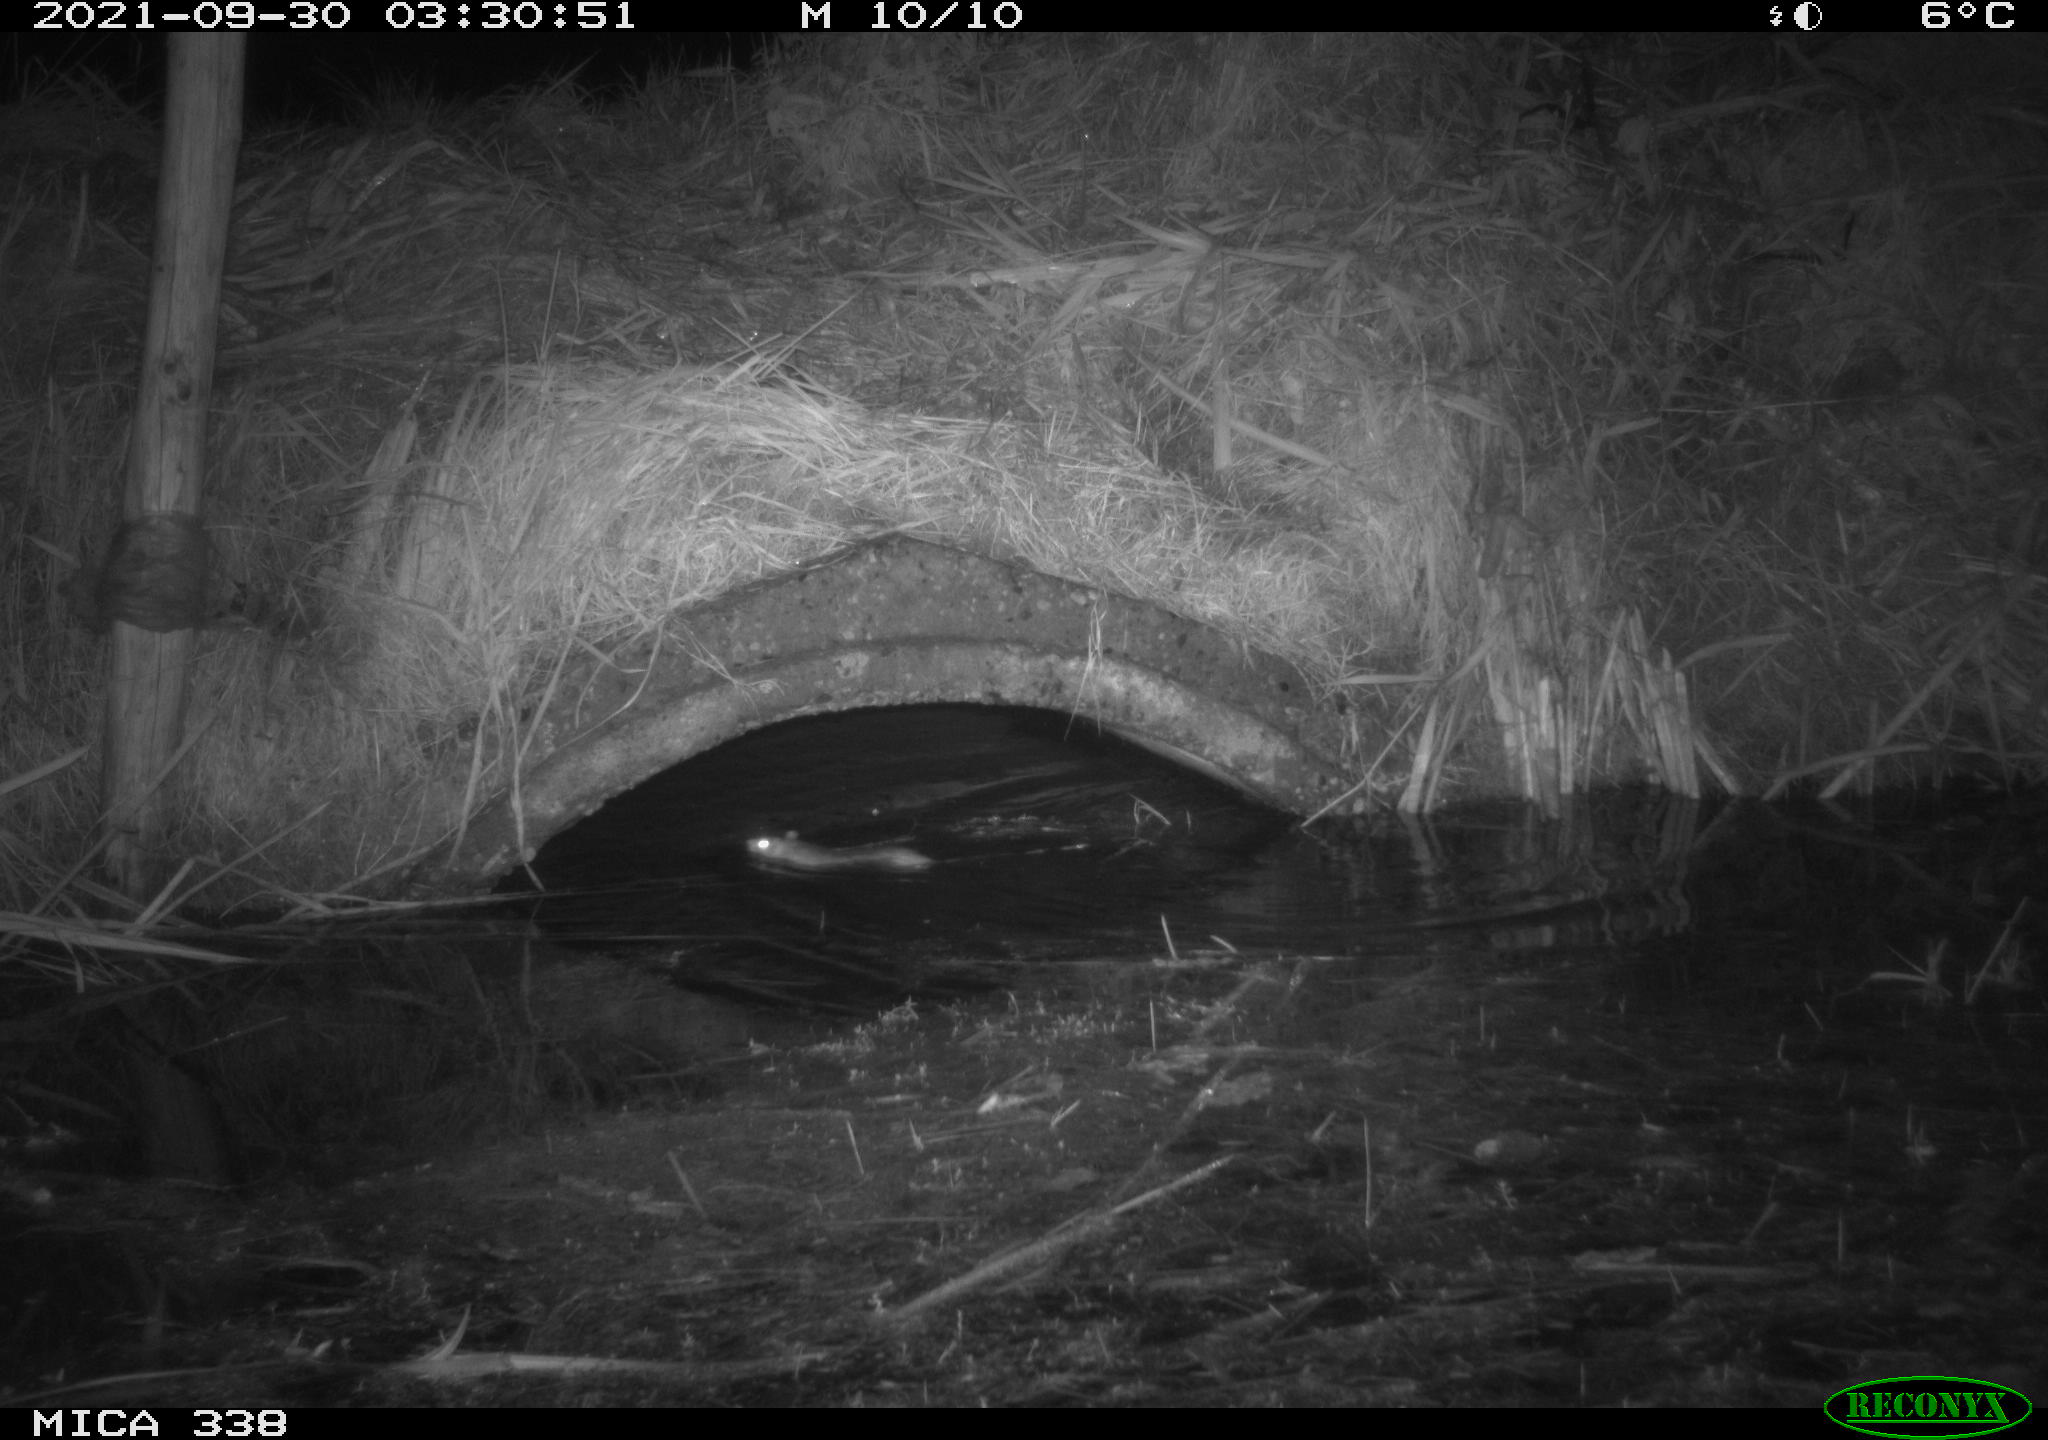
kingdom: Animalia
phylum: Chordata
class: Mammalia
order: Rodentia
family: Muridae
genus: Rattus
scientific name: Rattus norvegicus
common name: Brown rat
